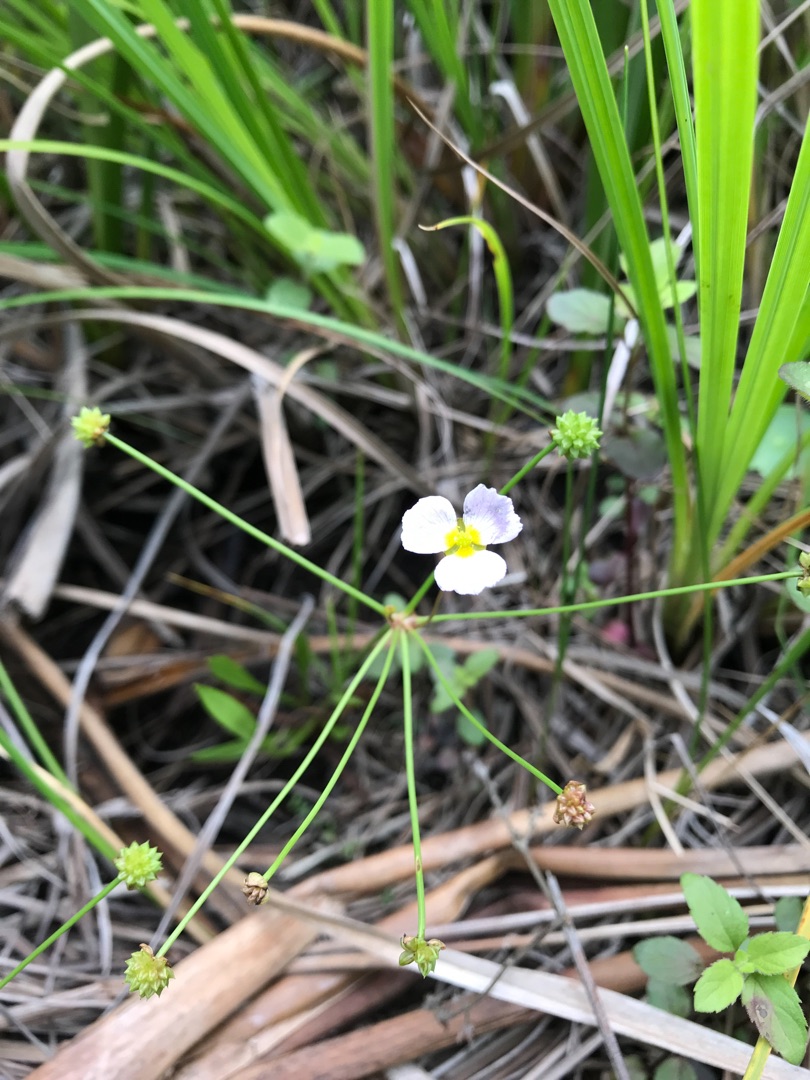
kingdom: Plantae
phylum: Tracheophyta
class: Liliopsida
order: Alismatales
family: Alismataceae
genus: Baldellia
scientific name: Baldellia ranunculoides
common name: Søpryd
